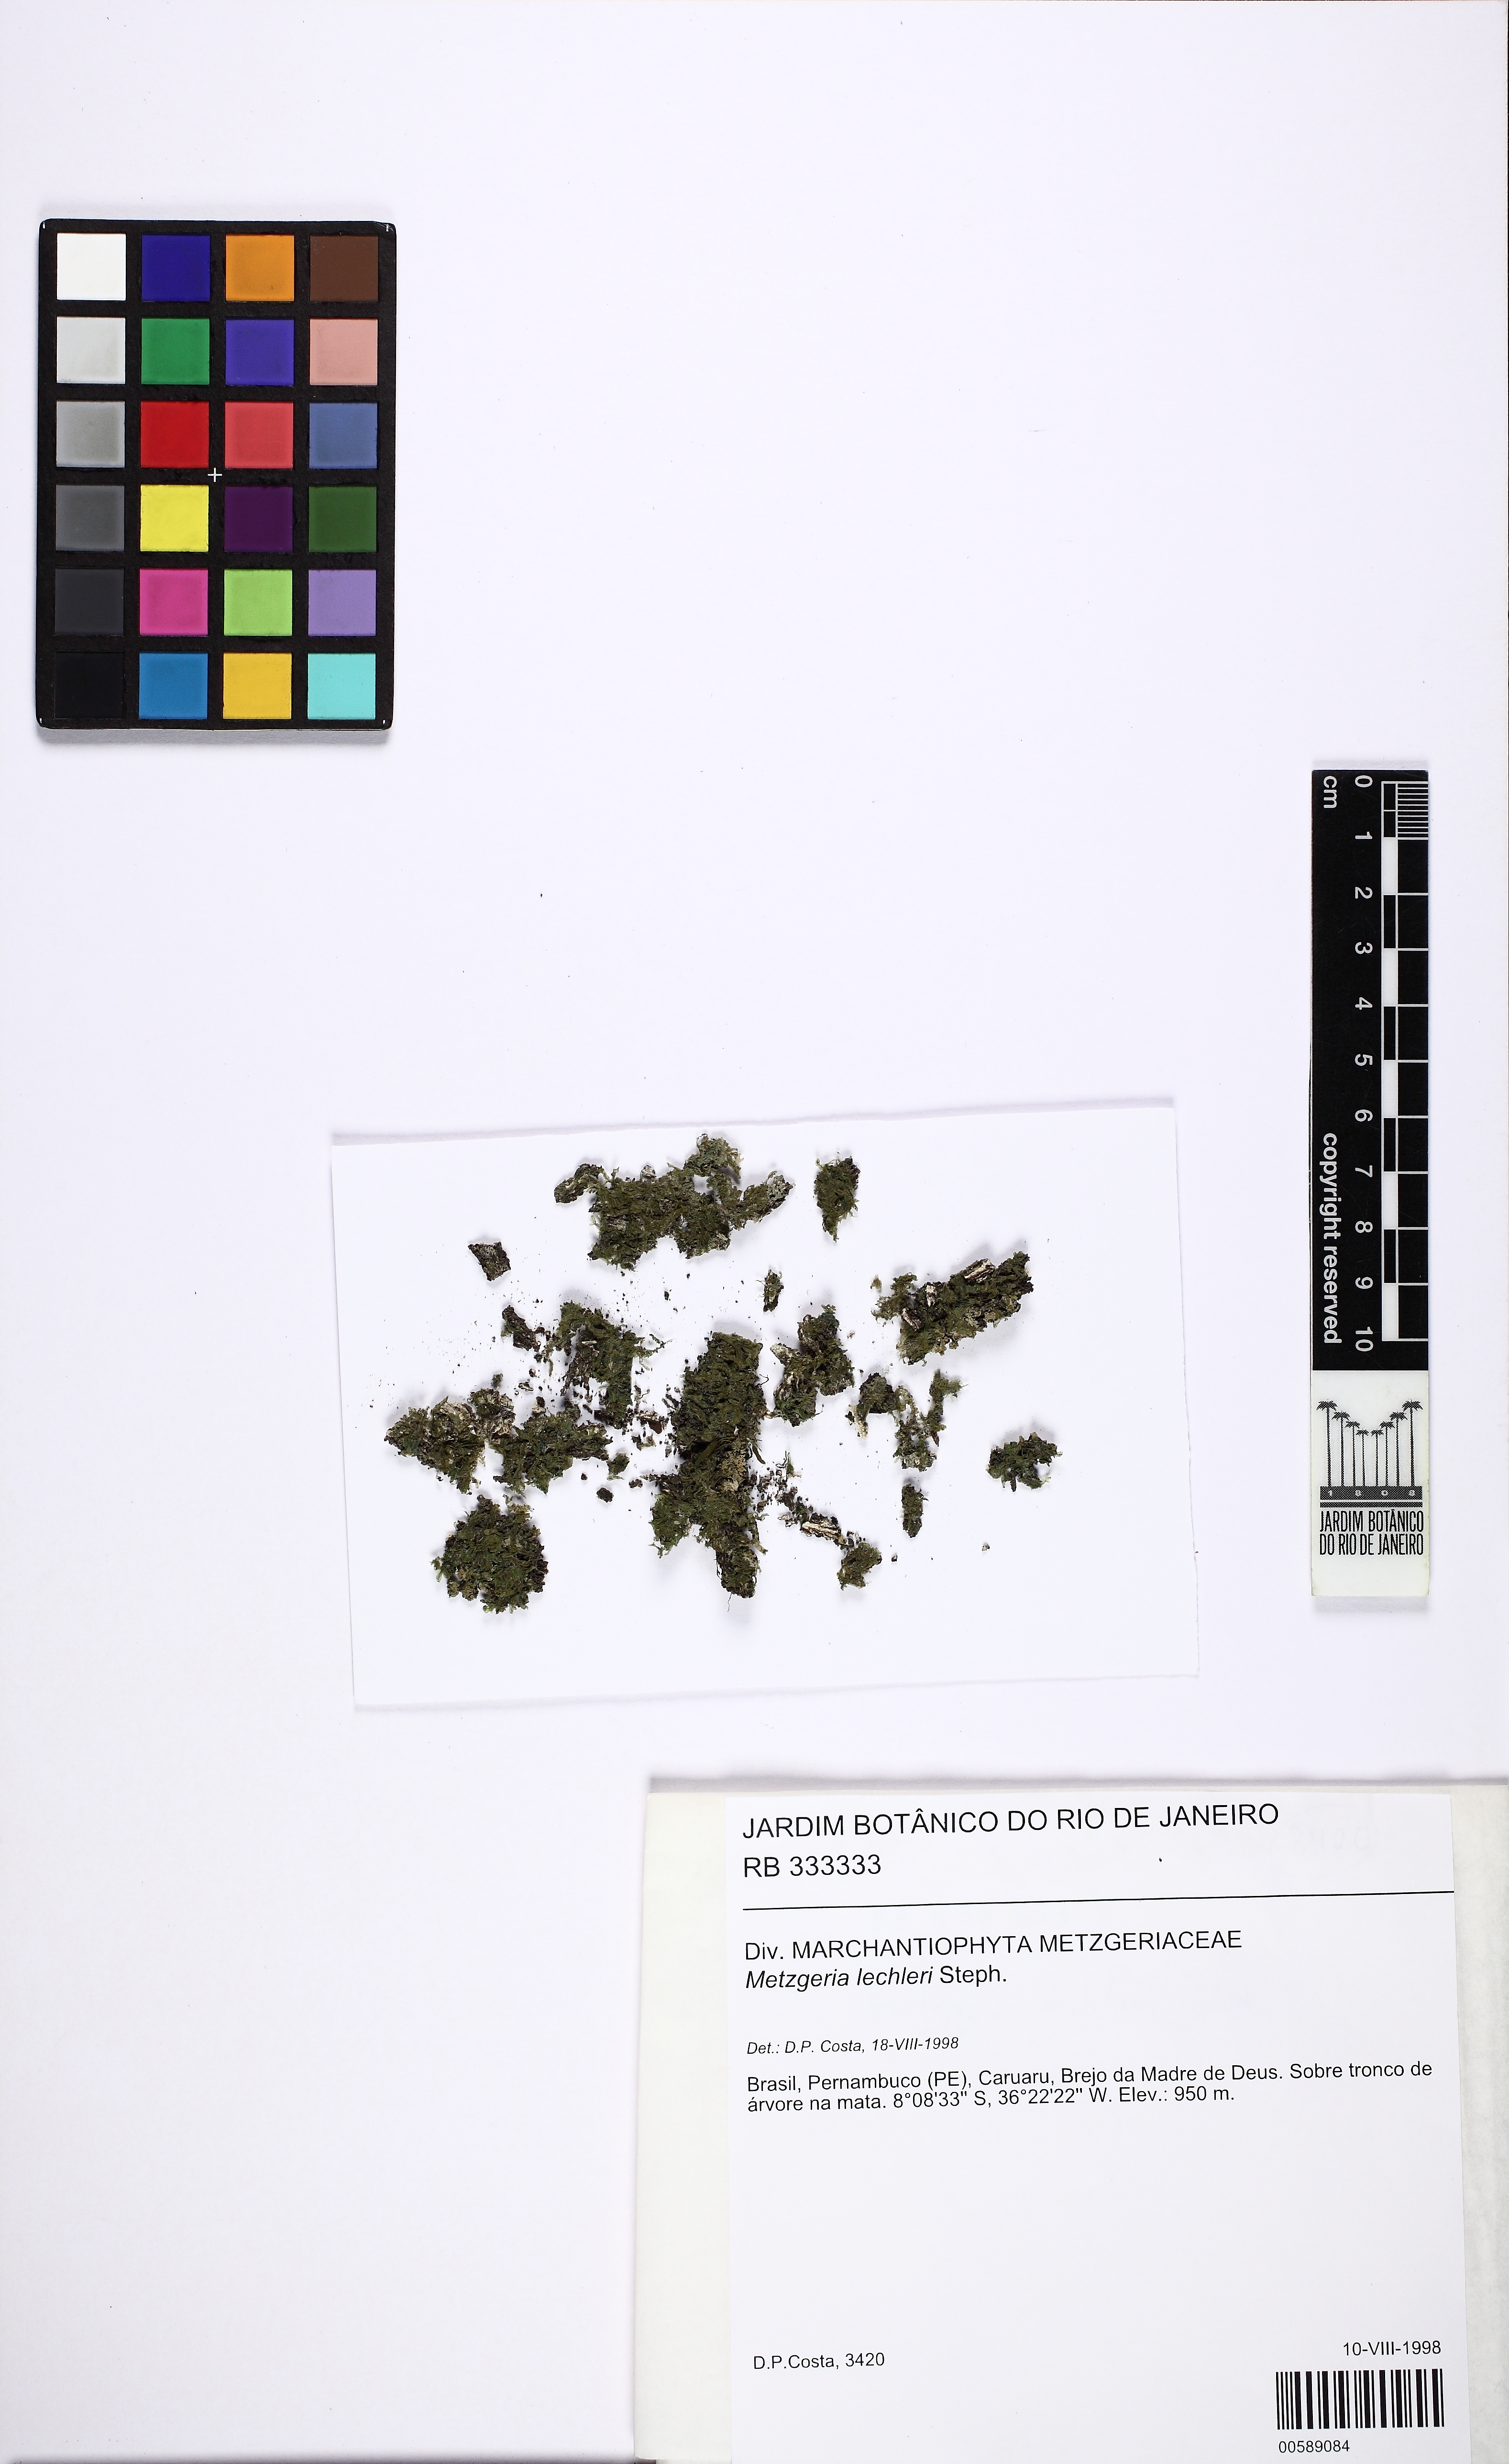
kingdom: Plantae
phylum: Marchantiophyta
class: Jungermanniopsida
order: Metzgeriales
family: Metzgeriaceae
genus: Metzgeria
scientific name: Metzgeria lechleri
